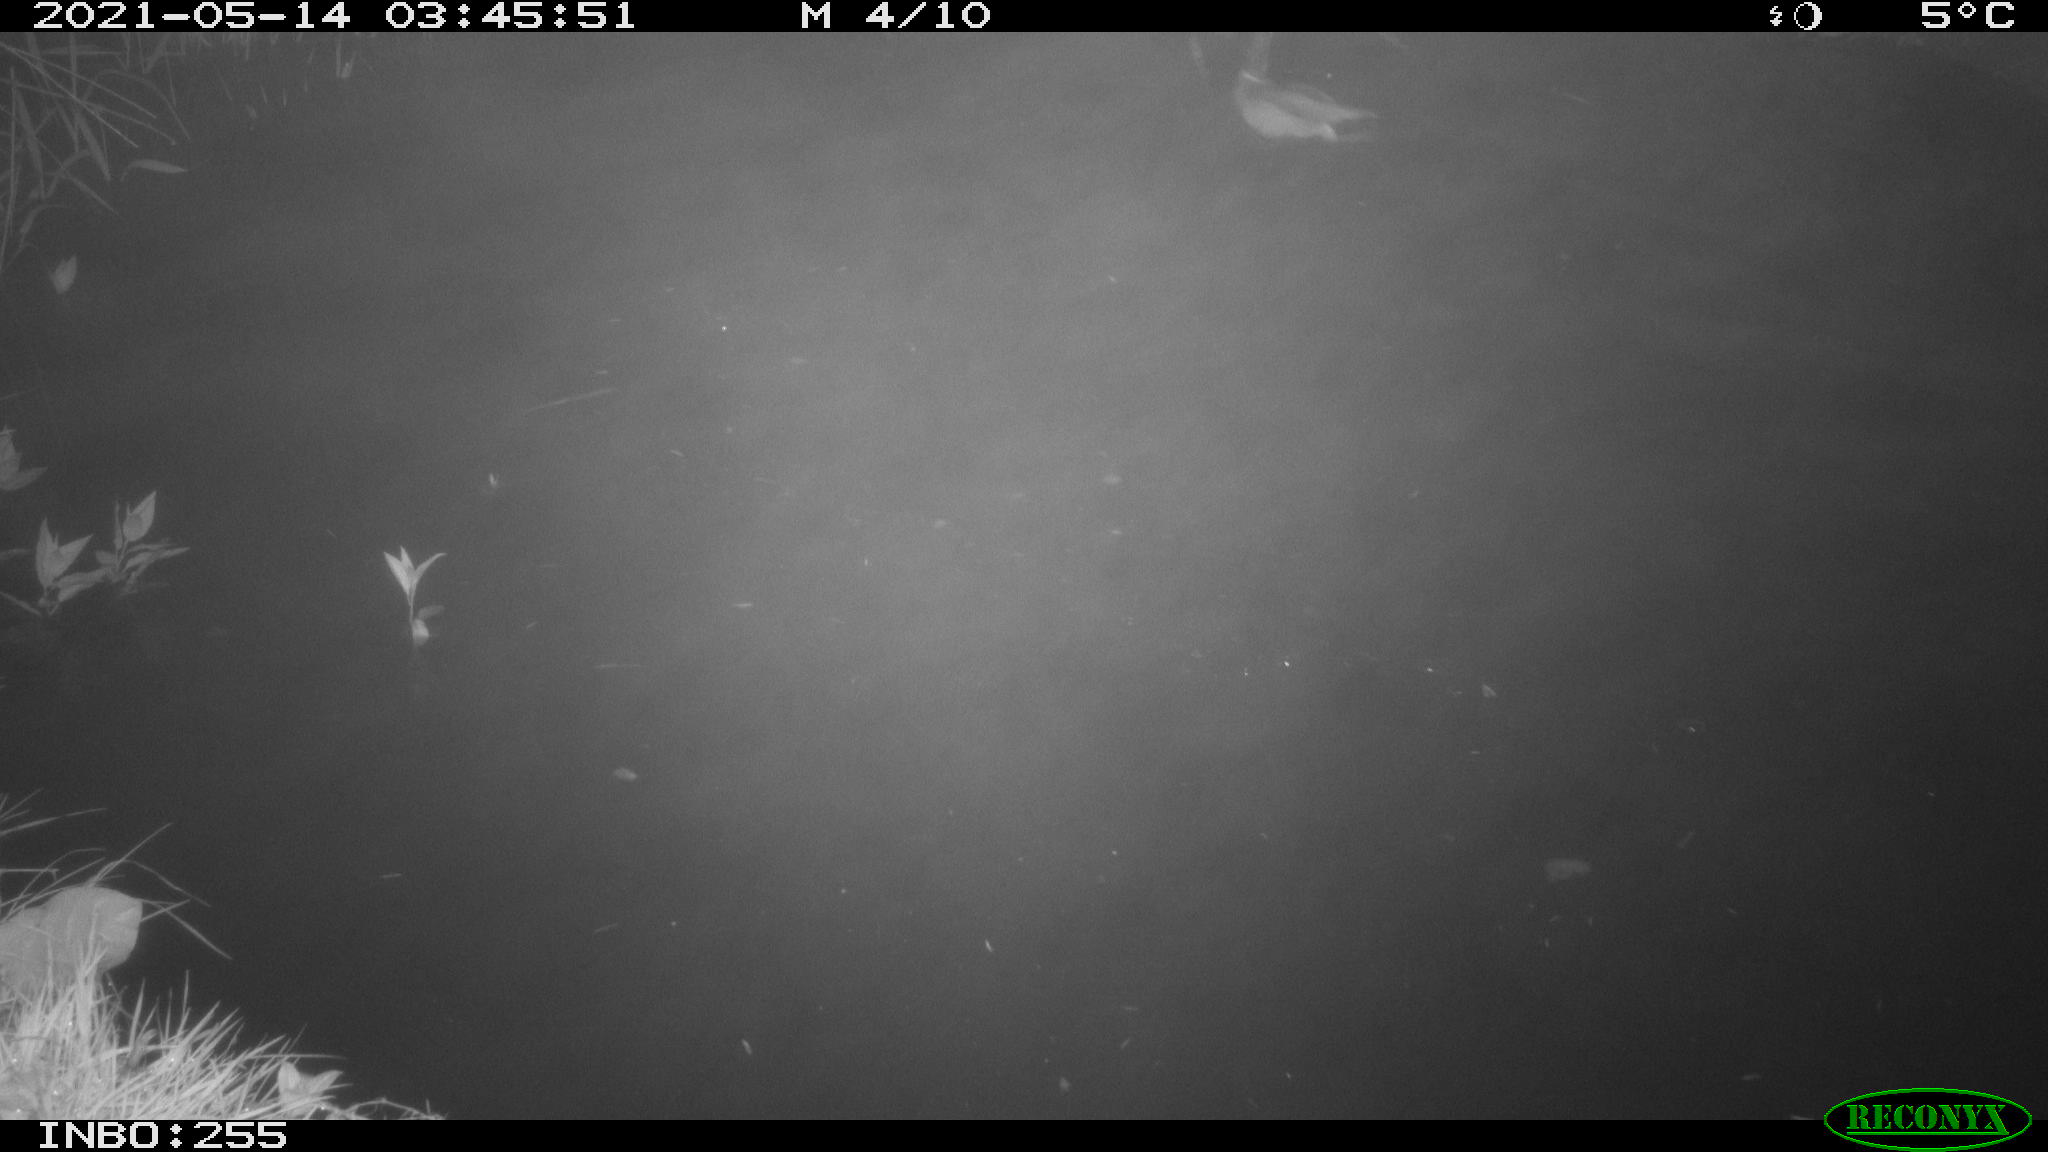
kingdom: Animalia
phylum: Chordata
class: Aves
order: Anseriformes
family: Anatidae
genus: Anas
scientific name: Anas platyrhynchos
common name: Mallard
